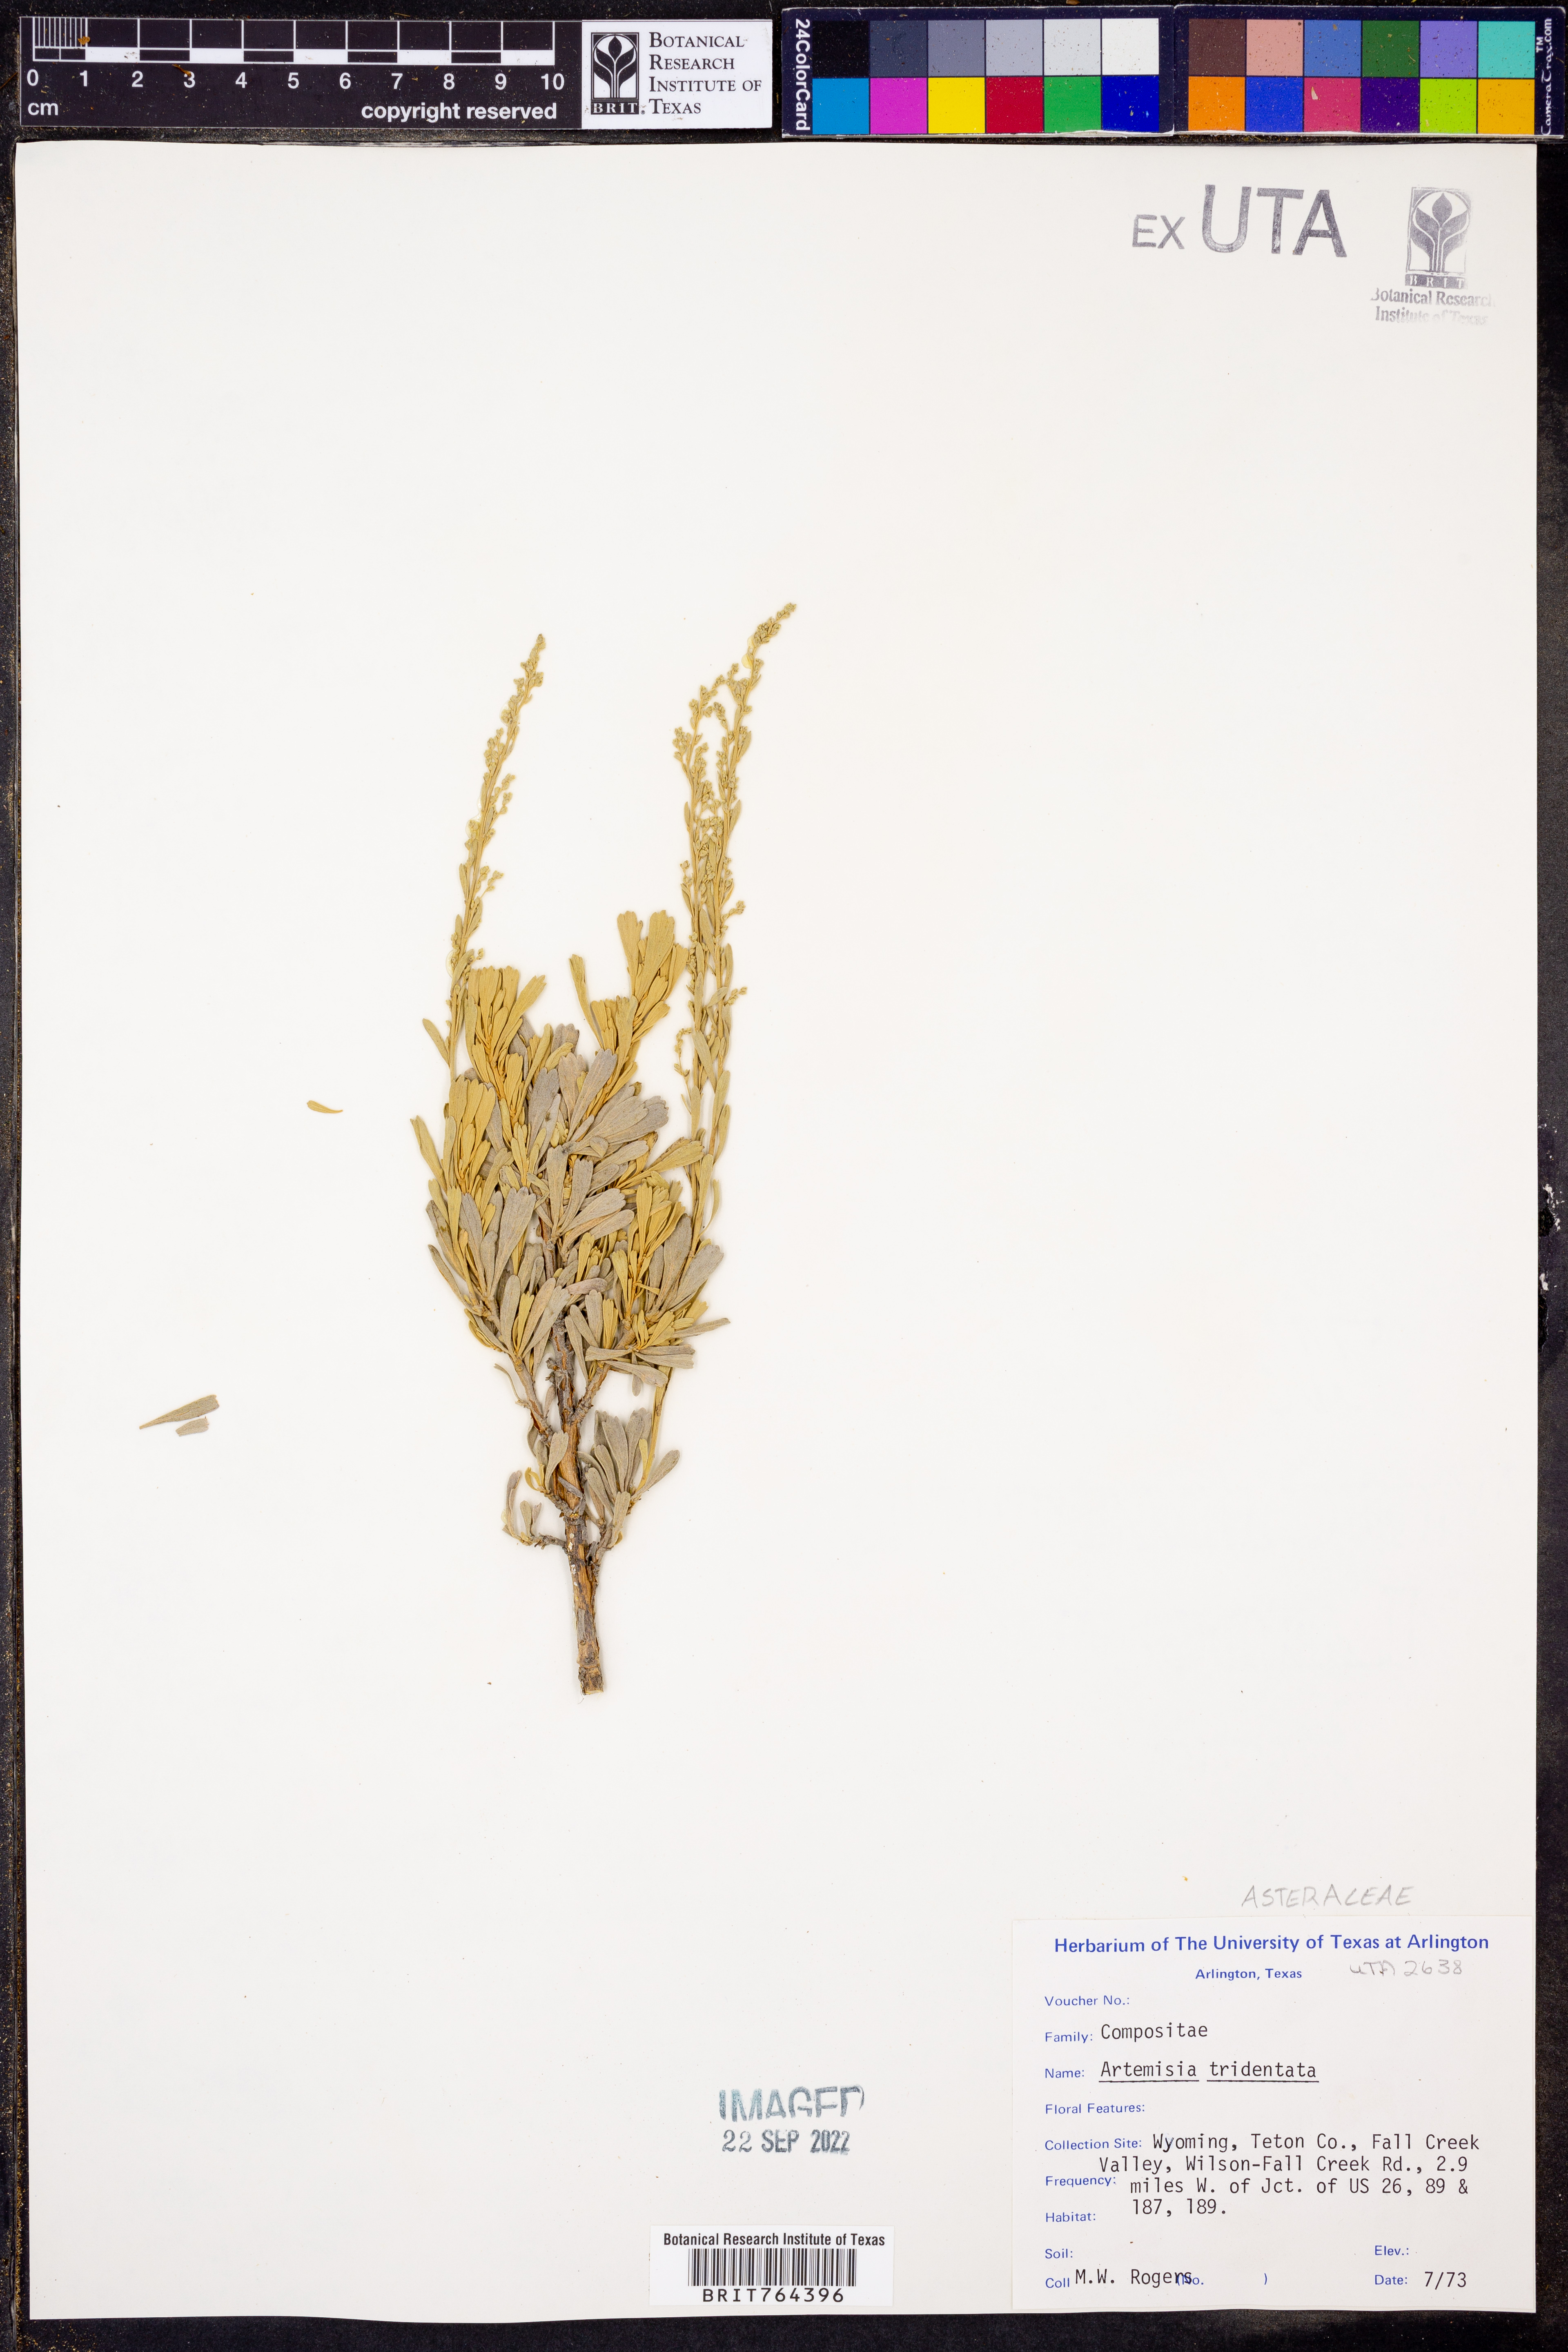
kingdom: Plantae
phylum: Tracheophyta
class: Magnoliopsida
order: Asterales
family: Asteraceae
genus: Artemisia
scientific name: Artemisia tridentata
